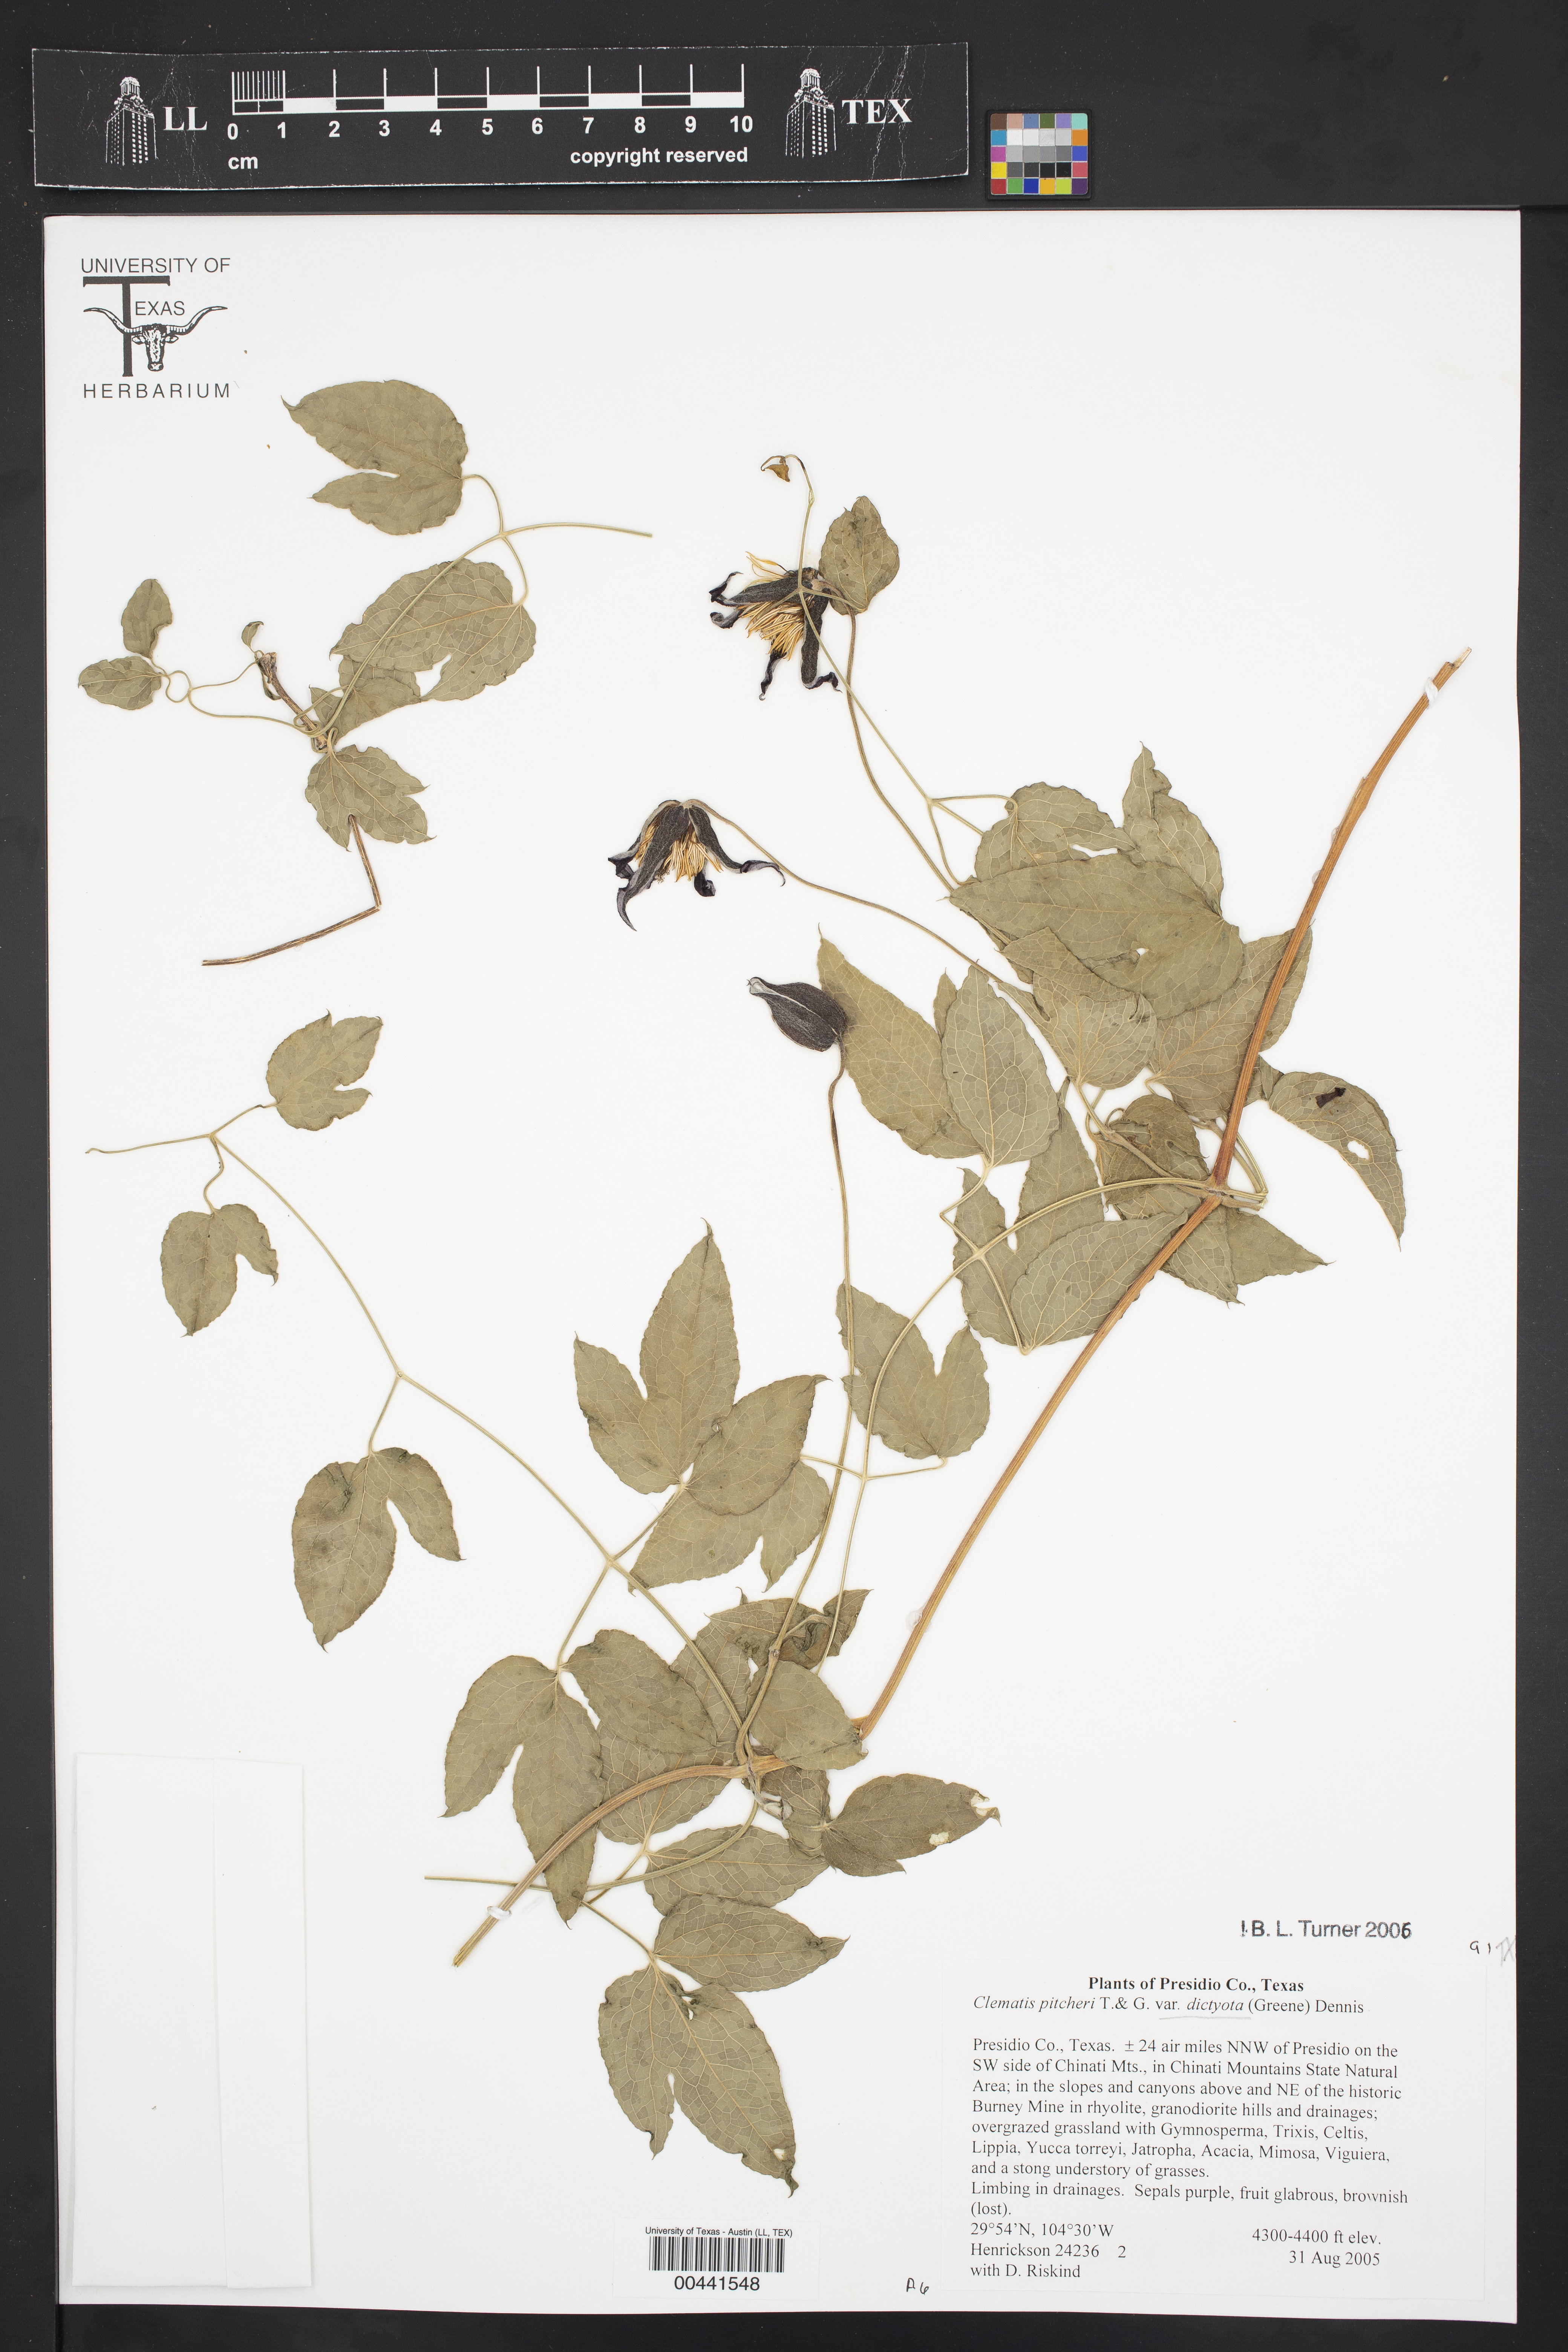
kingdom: Plantae
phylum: Tracheophyta
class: Magnoliopsida
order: Ranunculales
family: Ranunculaceae
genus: Clematis
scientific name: Clematis pitcheri
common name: Bellflower clematis
